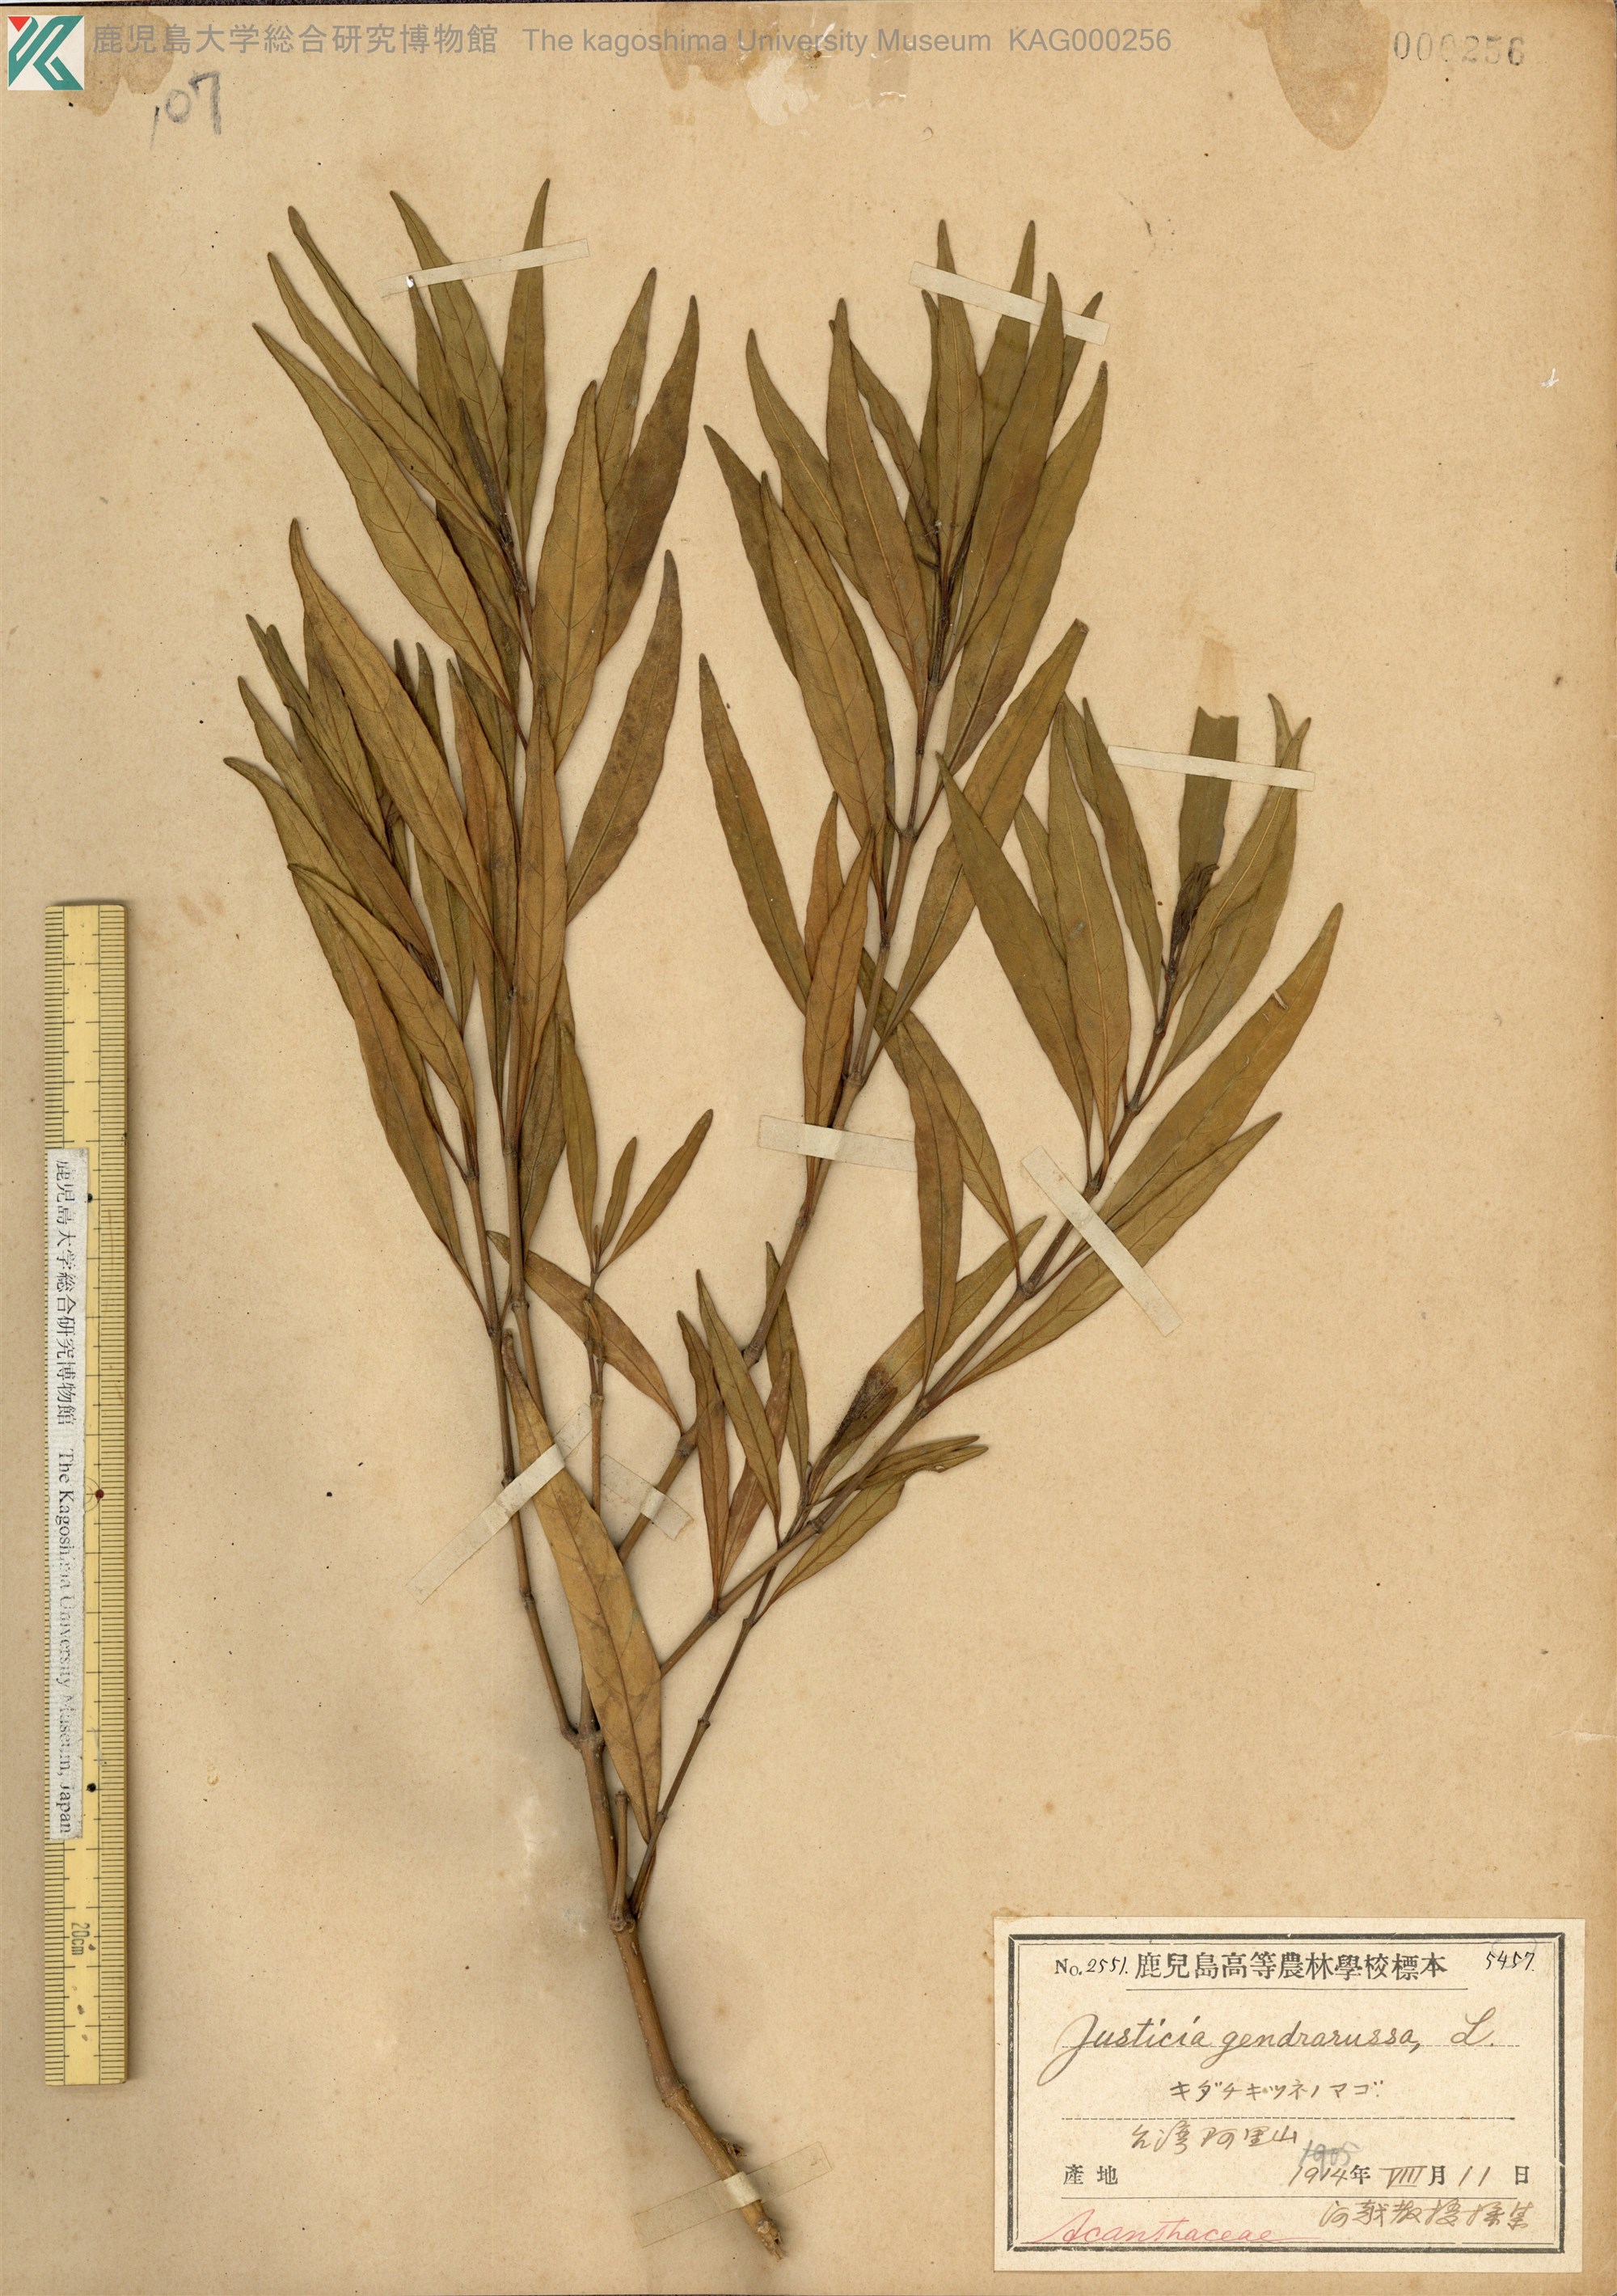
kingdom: Plantae
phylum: Tracheophyta
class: Magnoliopsida
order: Lamiales
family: Acanthaceae
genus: Justicia
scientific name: Justicia gendarussa
